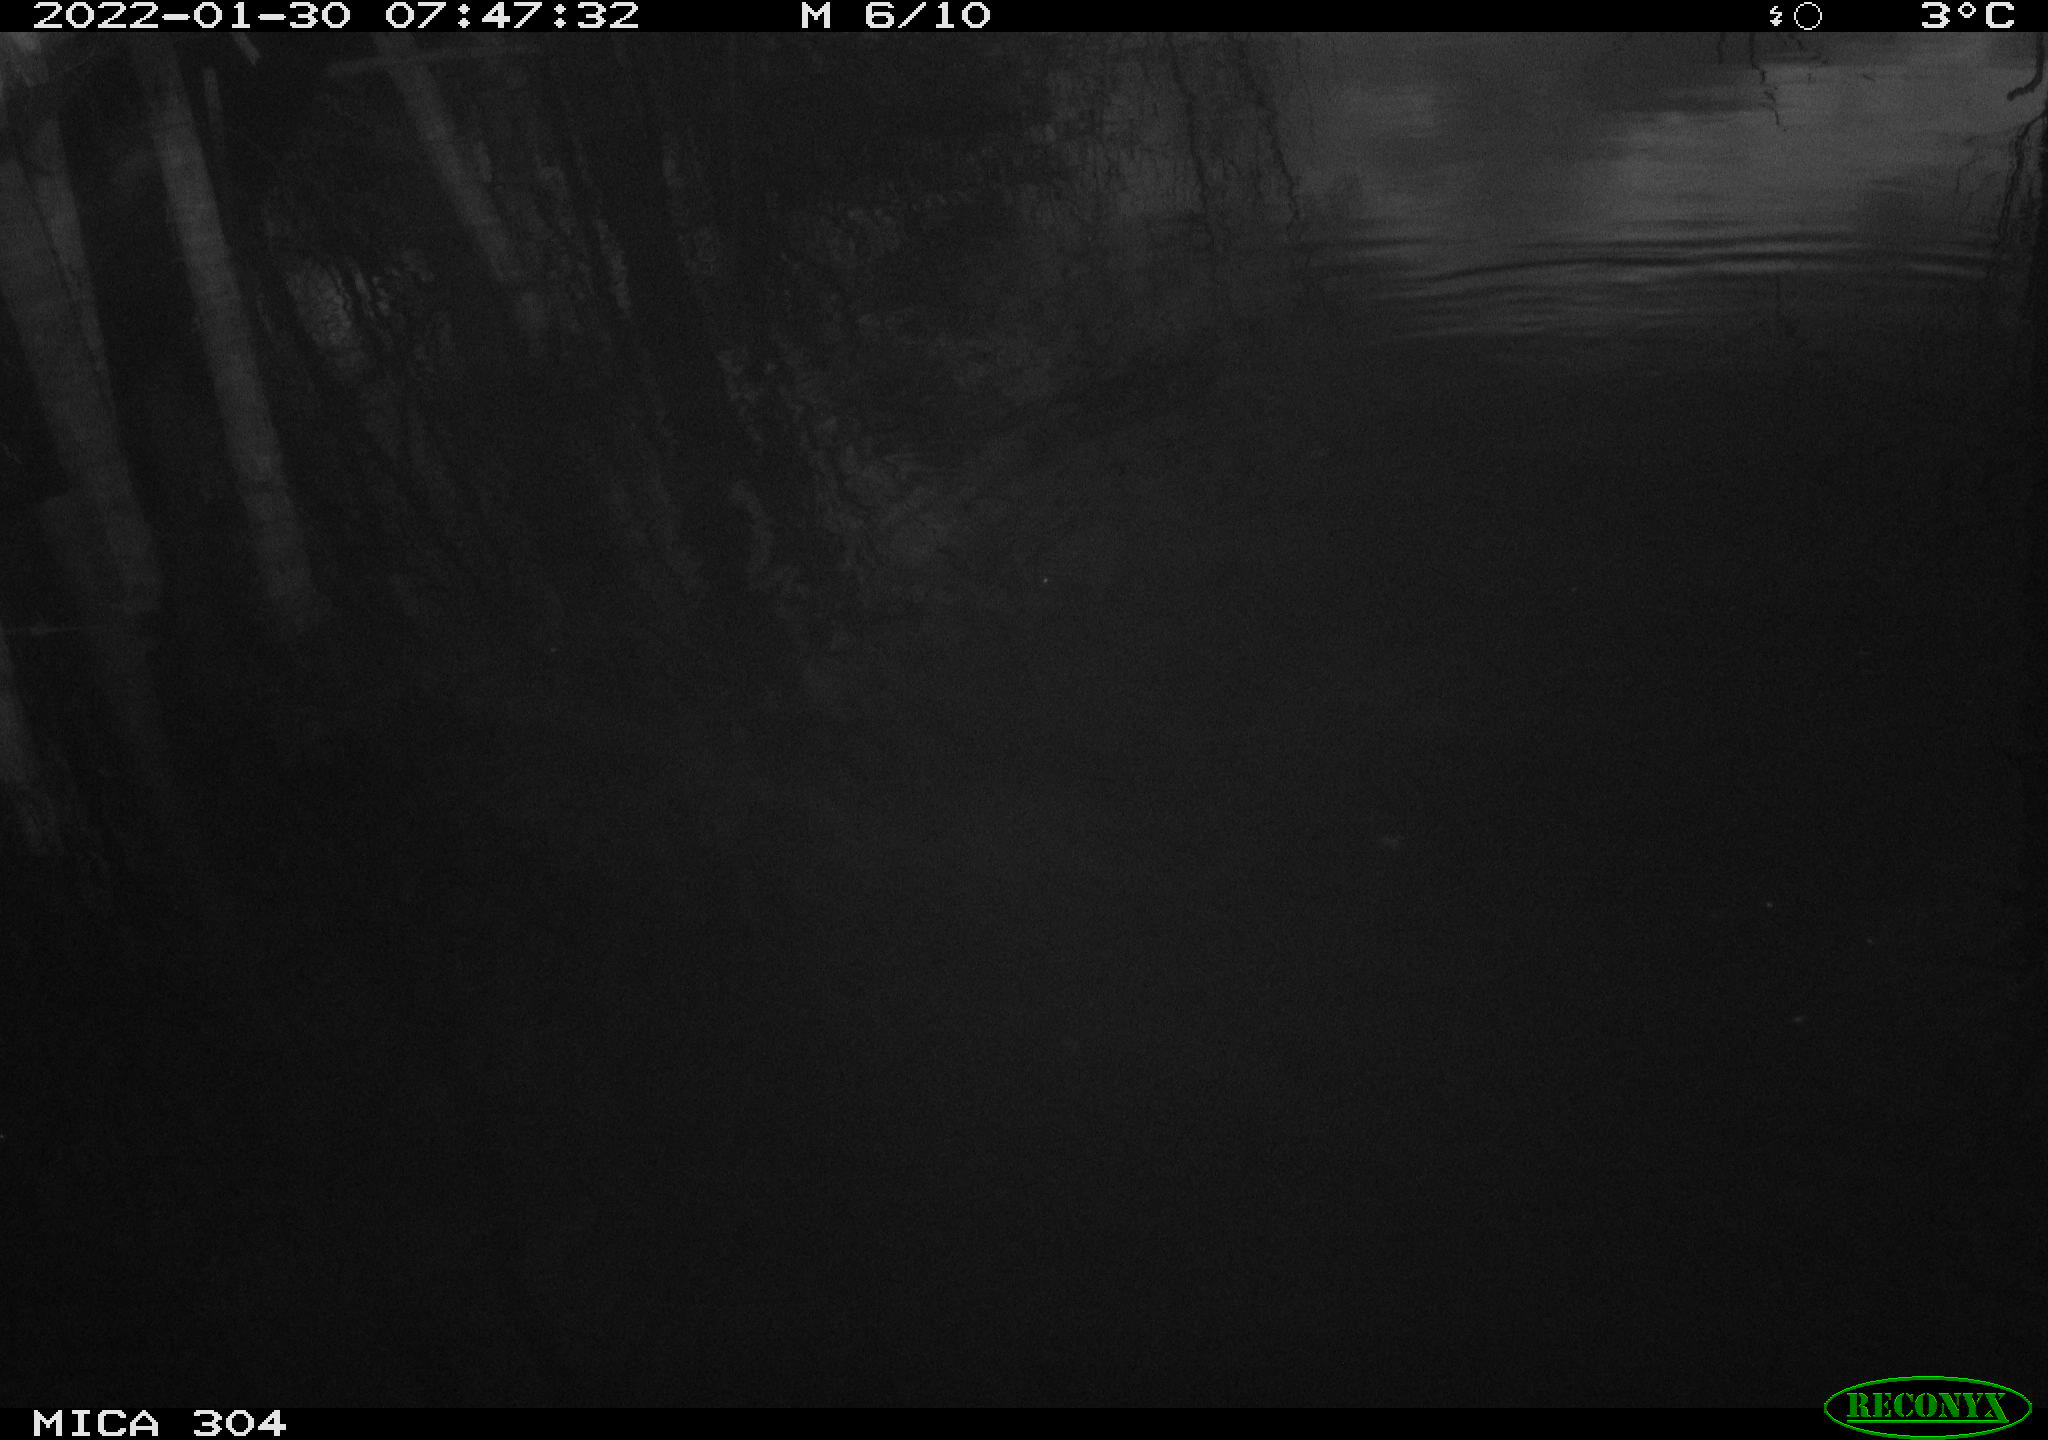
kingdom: Animalia
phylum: Chordata
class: Aves
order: Anseriformes
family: Anatidae
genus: Anas
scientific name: Anas
